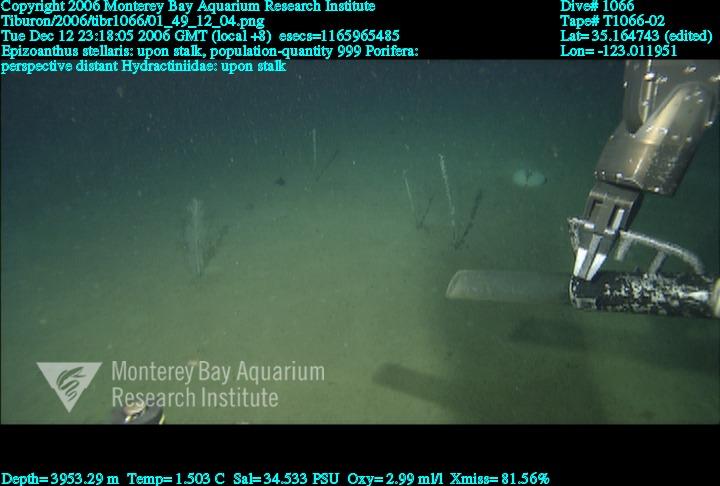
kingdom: Animalia
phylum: Porifera
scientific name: Porifera
